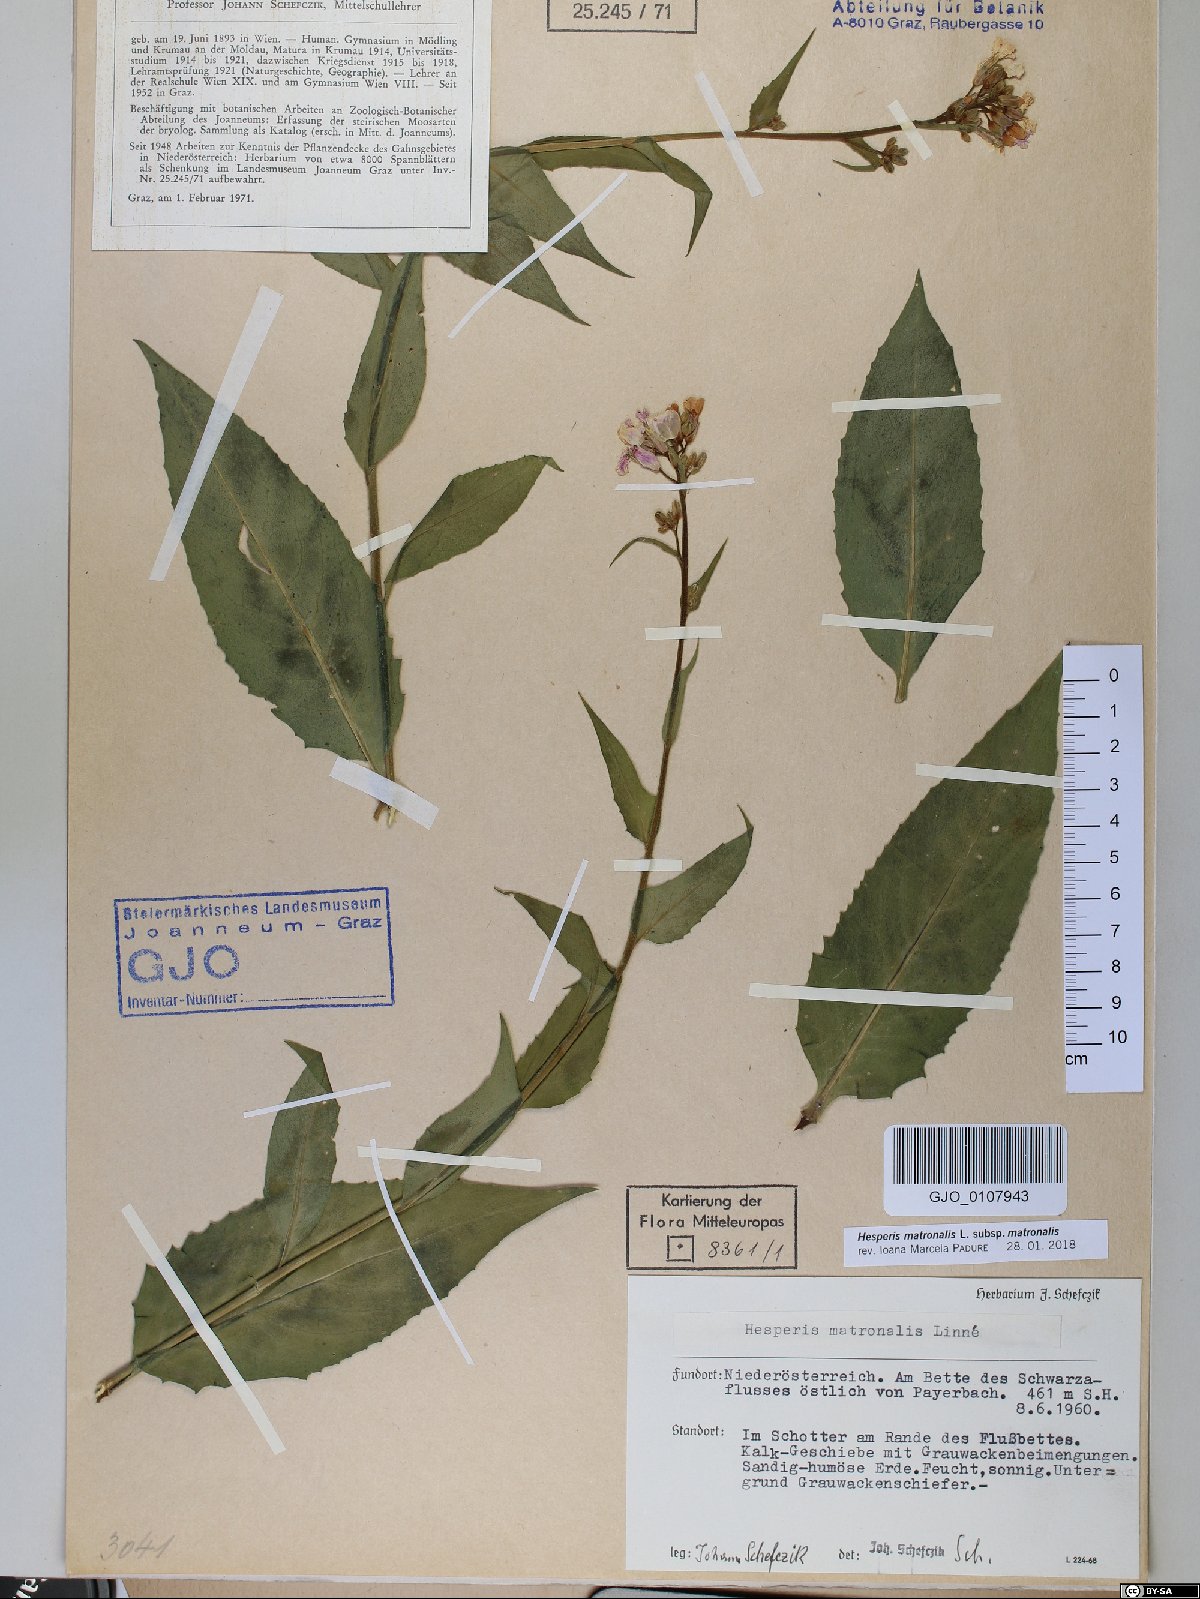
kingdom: Plantae
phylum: Tracheophyta
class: Magnoliopsida
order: Brassicales
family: Brassicaceae
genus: Hesperis
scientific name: Hesperis matronalis
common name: Dame's-violet
